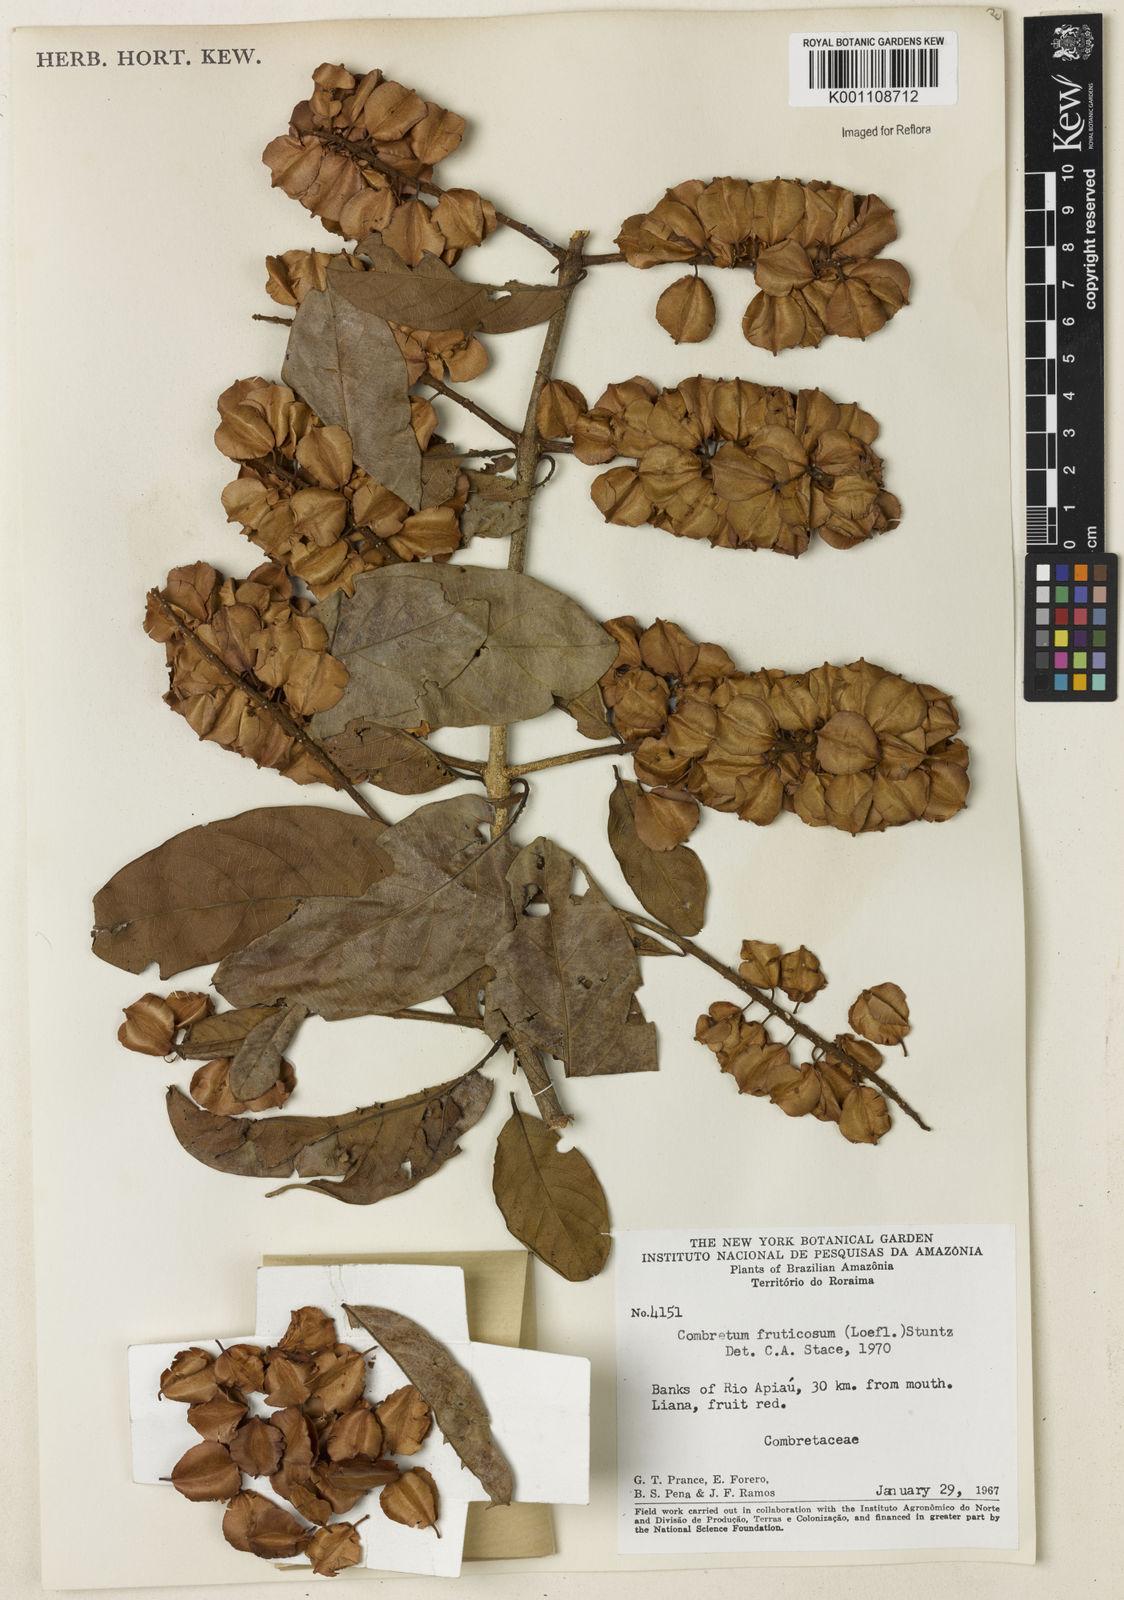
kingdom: Plantae
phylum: Tracheophyta
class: Magnoliopsida
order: Myrtales
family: Combretaceae
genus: Combretum
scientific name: Combretum fruticosum
